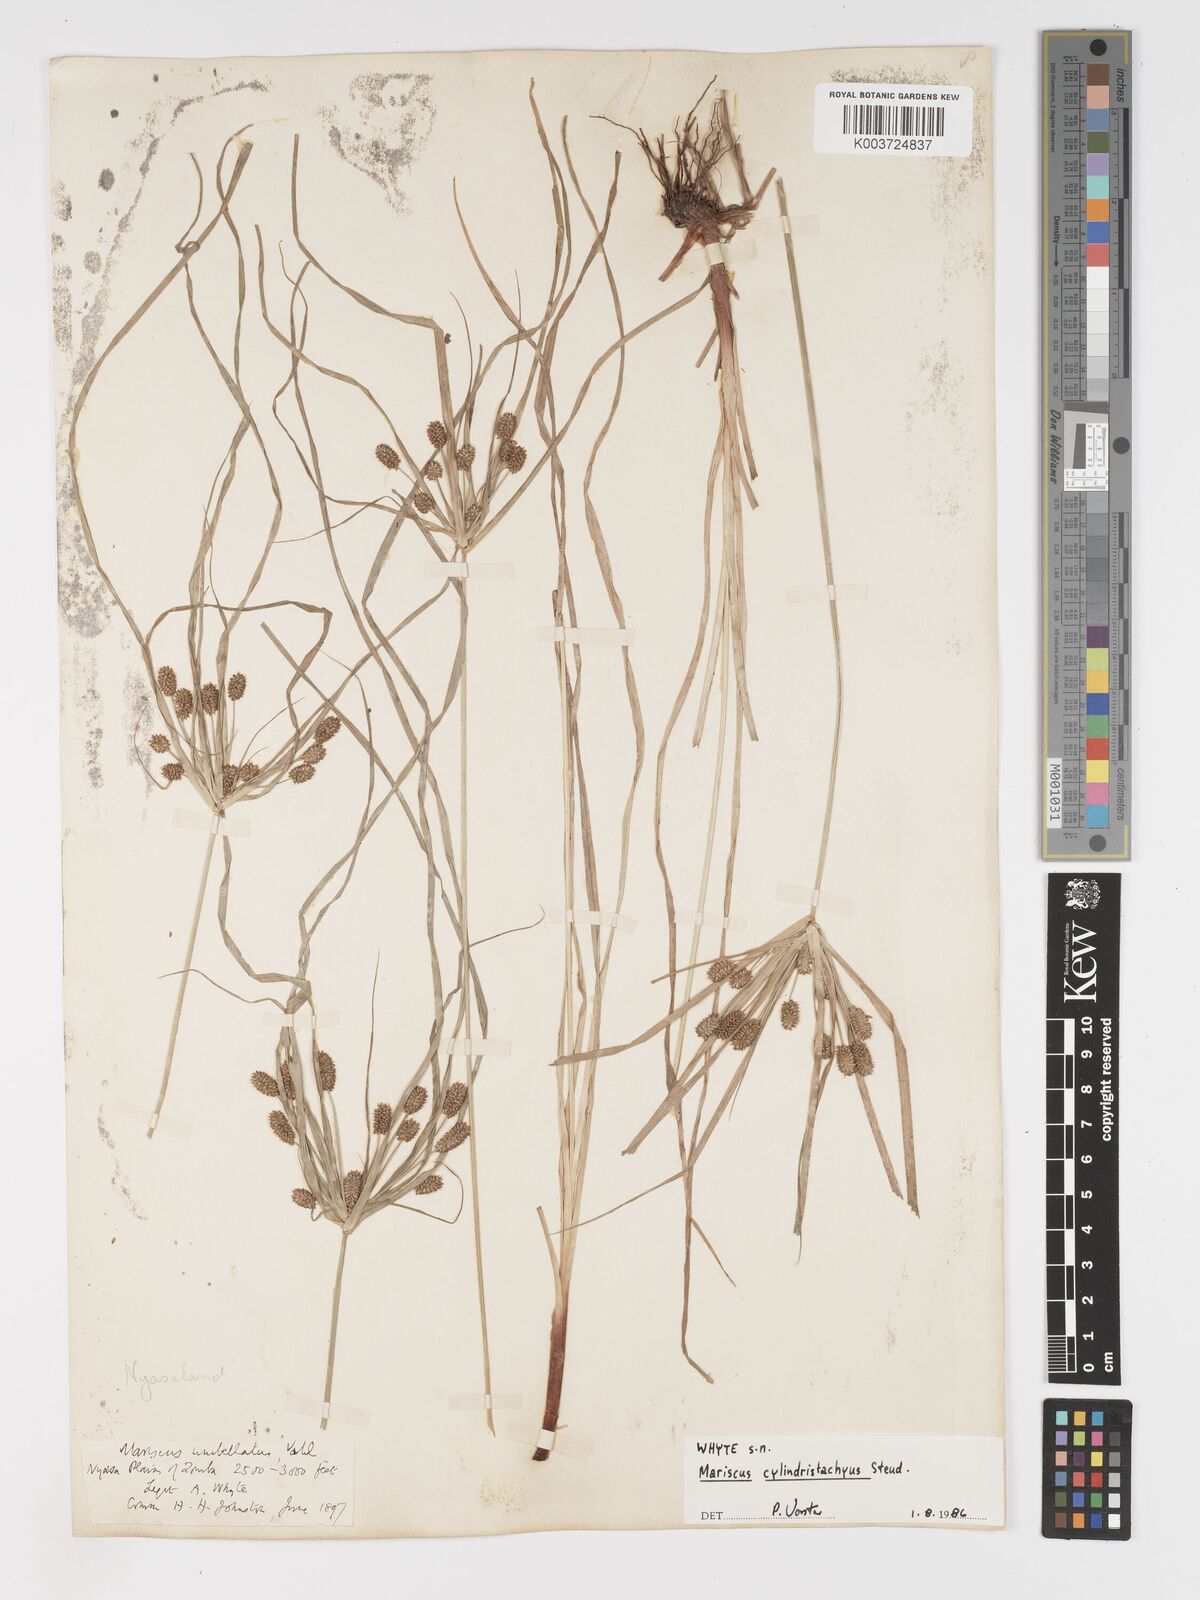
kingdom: Plantae
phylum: Tracheophyta
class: Liliopsida
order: Poales
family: Cyperaceae
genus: Cyperus
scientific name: Cyperus cyperoides
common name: Pacific island flat sedge
